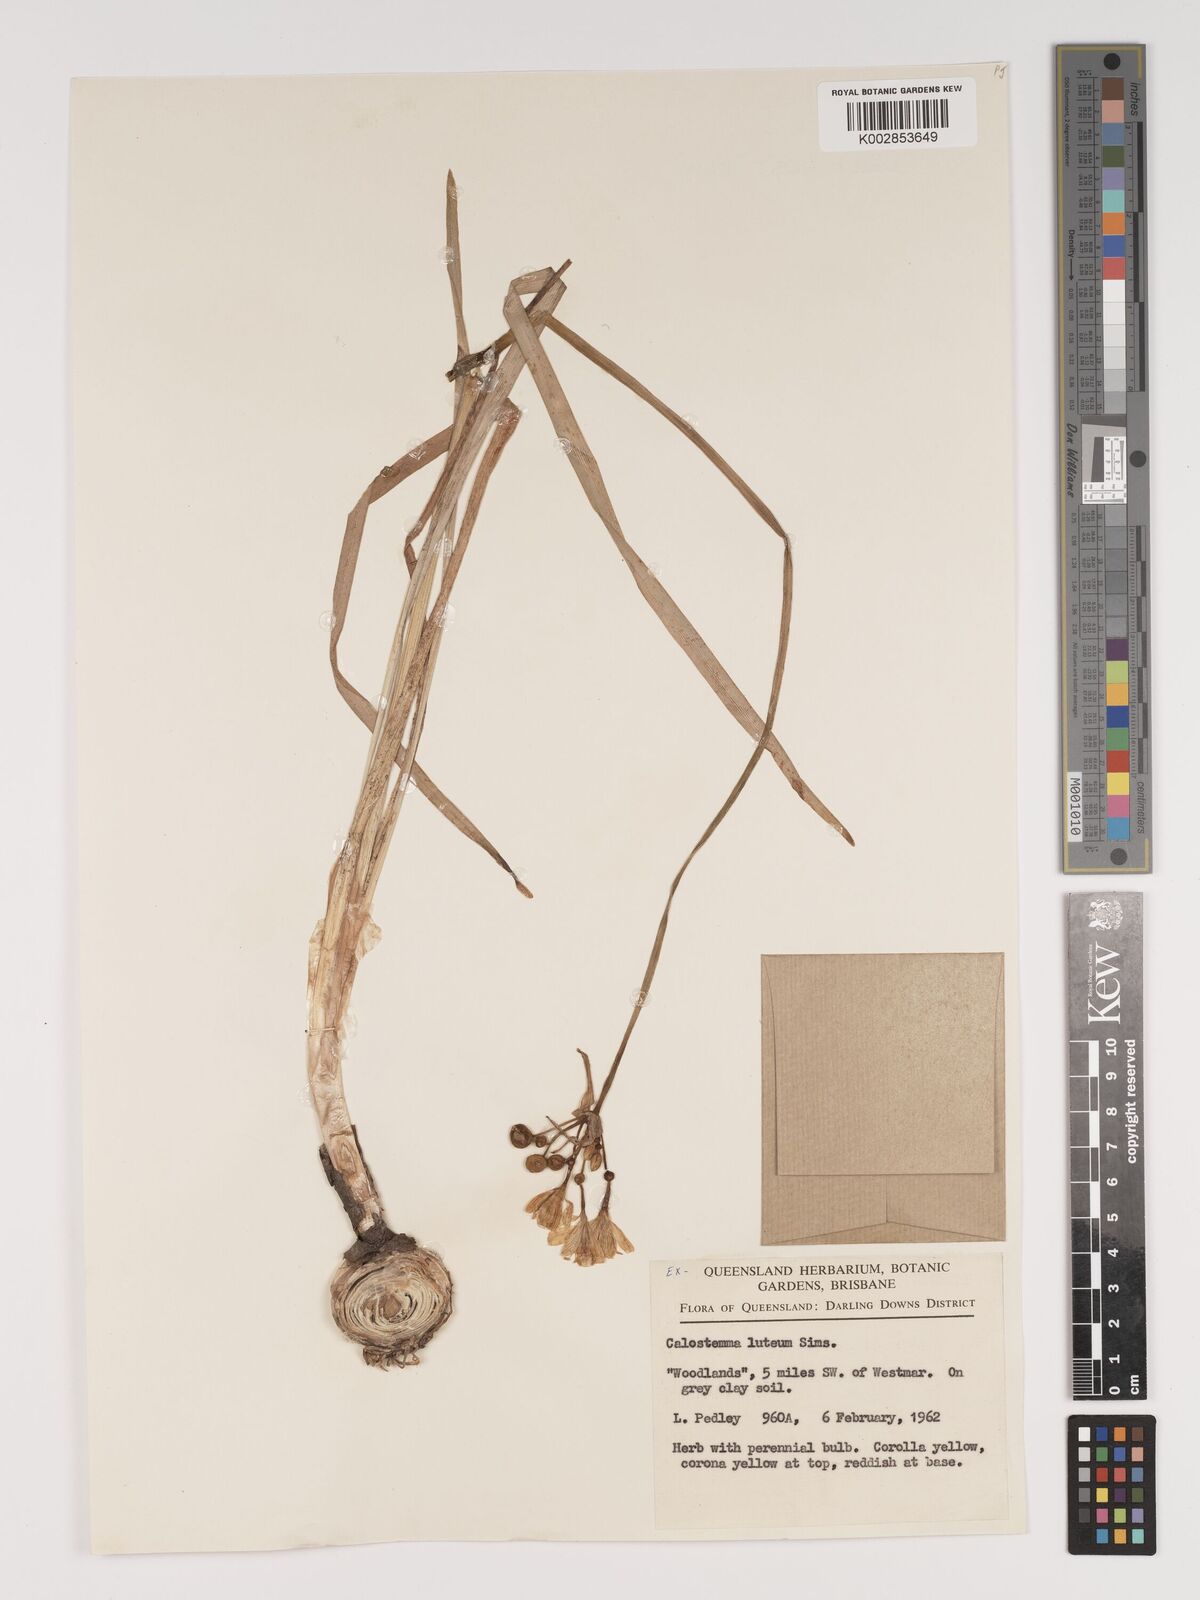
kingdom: Plantae
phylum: Tracheophyta
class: Liliopsida
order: Asparagales
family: Amaryllidaceae
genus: Calostemma
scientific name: Calostemma luteum
